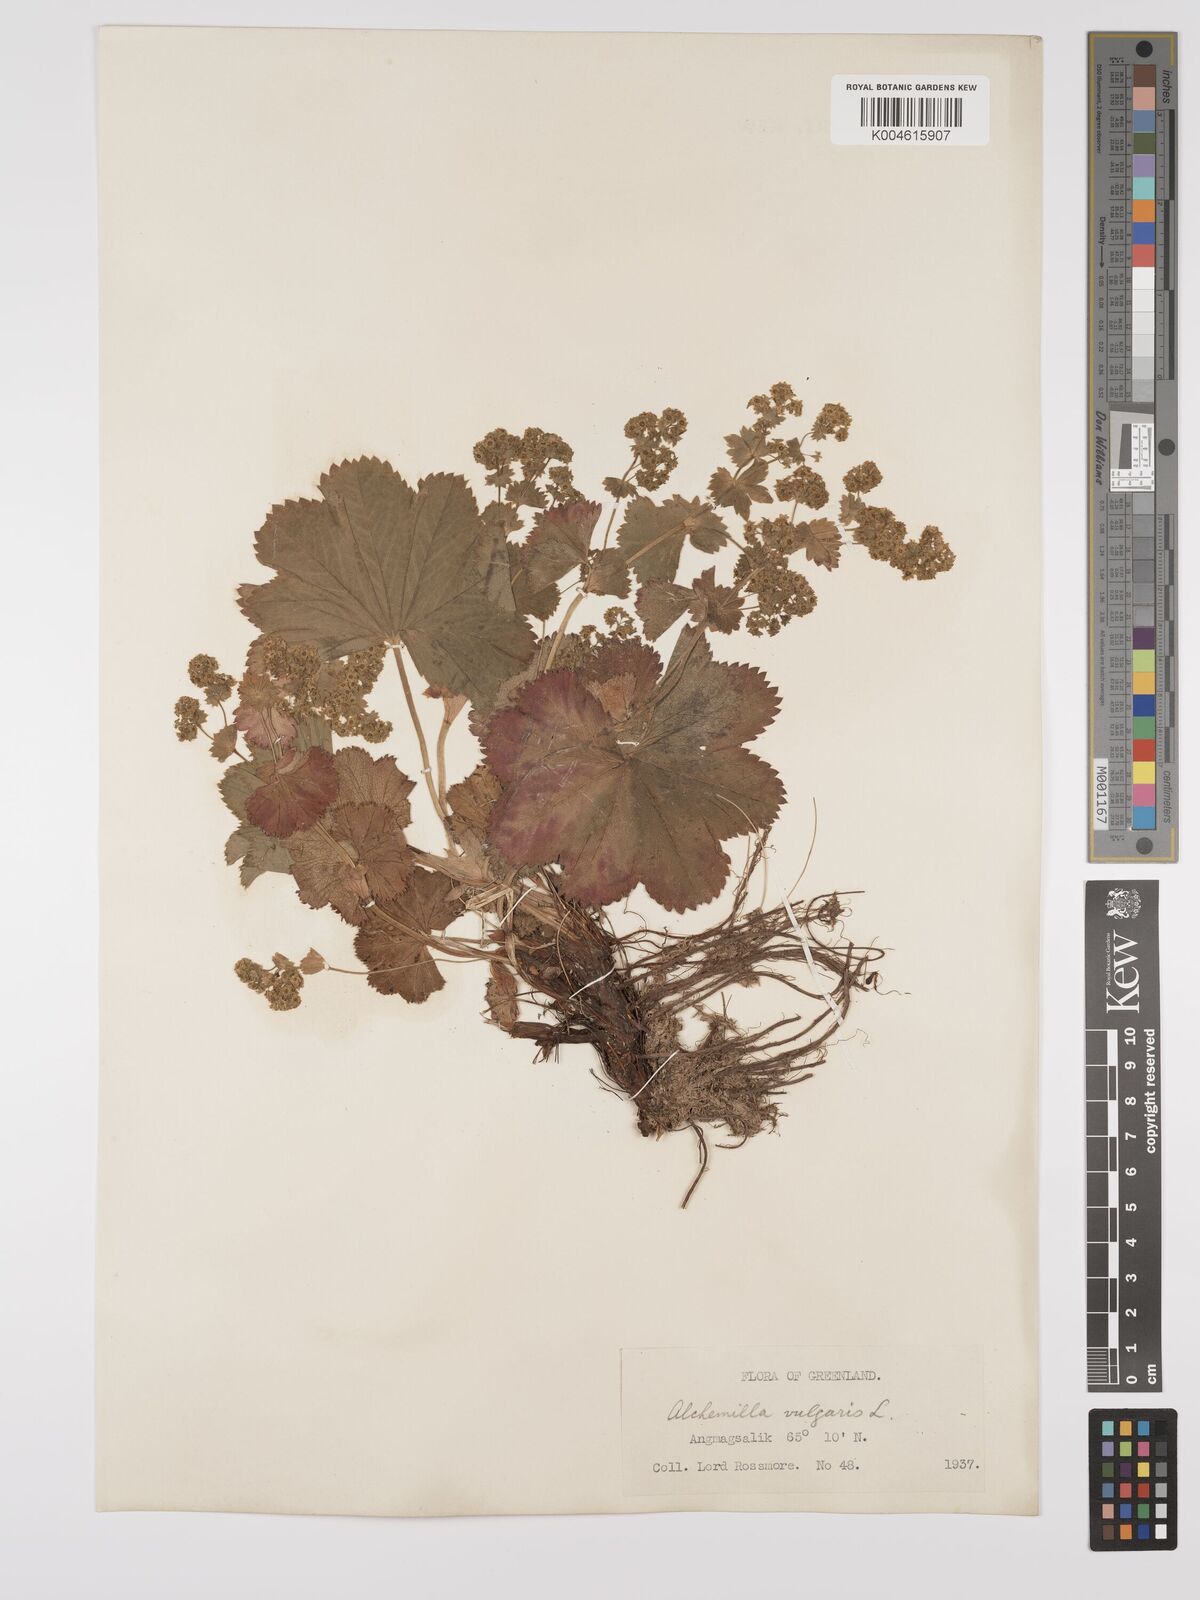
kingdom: Plantae
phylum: Tracheophyta
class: Magnoliopsida
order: Rosales
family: Rosaceae
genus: Alchemilla
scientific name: Alchemilla vulgaris
